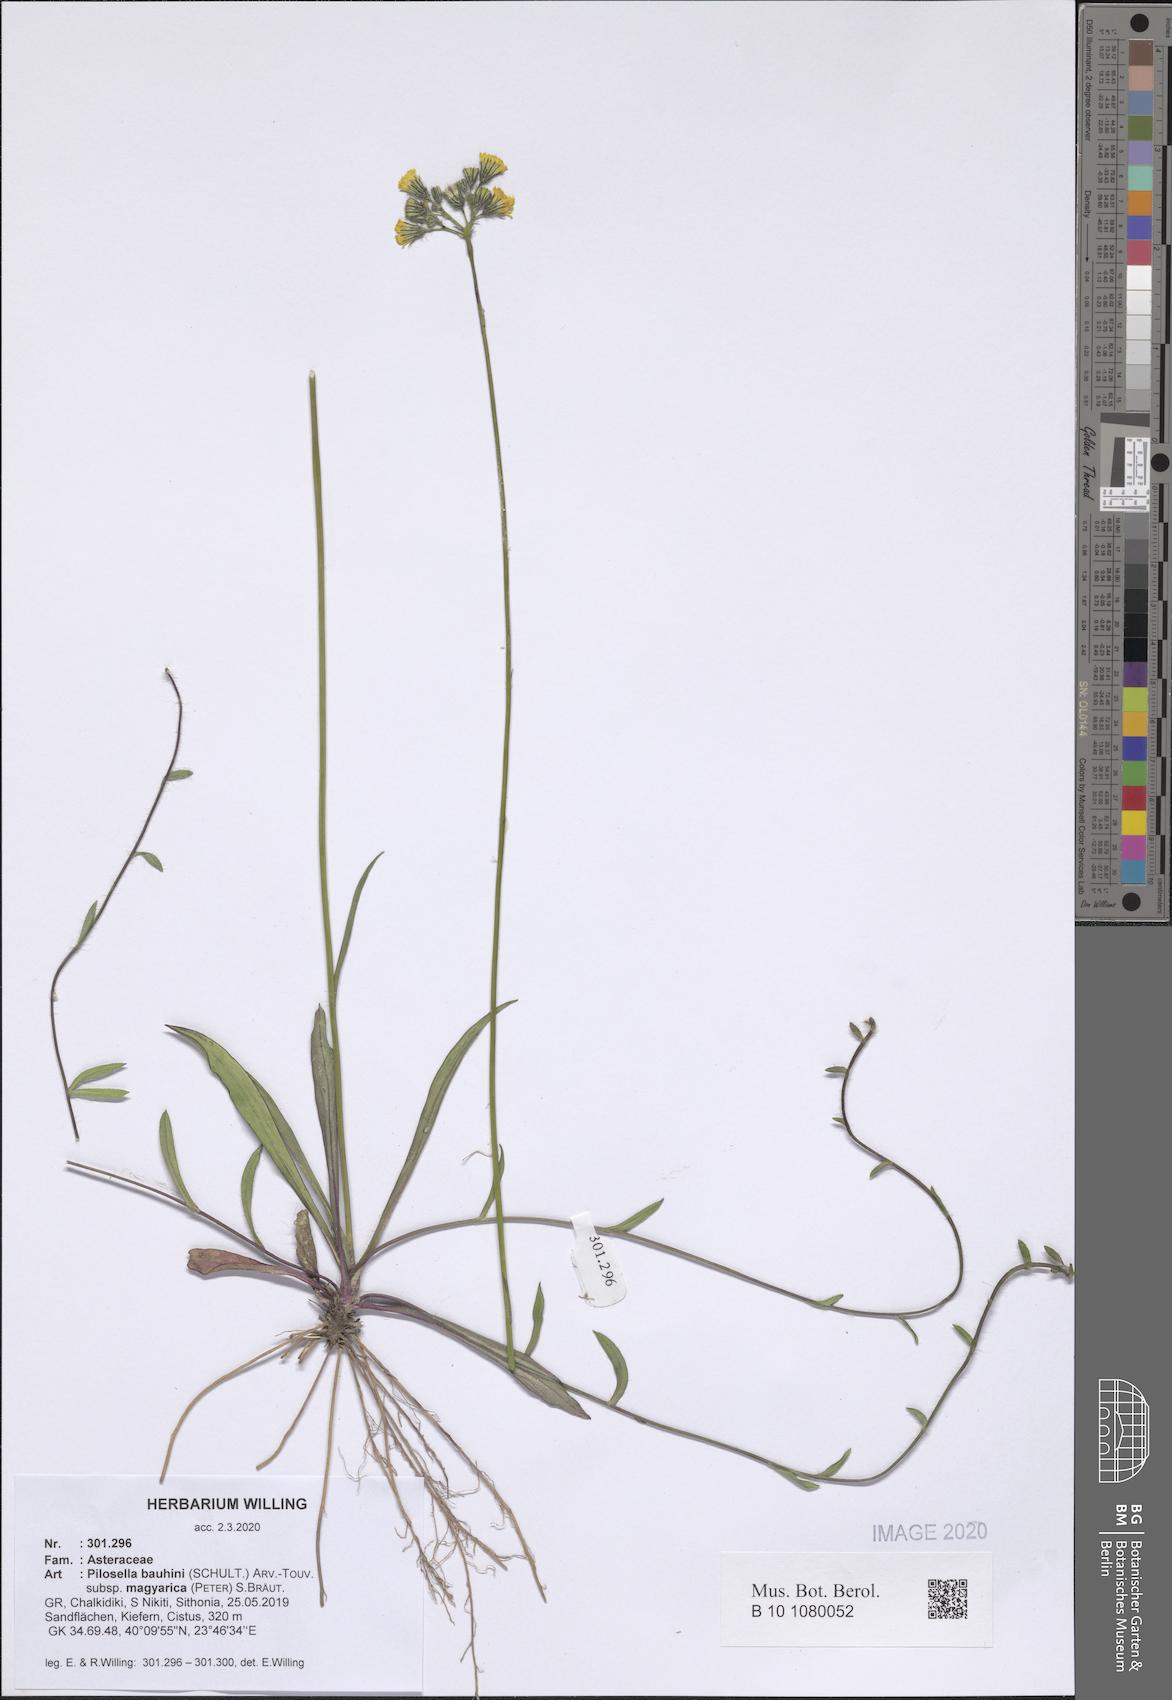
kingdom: Plantae
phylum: Tracheophyta
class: Magnoliopsida
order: Asterales
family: Asteraceae
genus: Pilosella
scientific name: Pilosella bauhini
